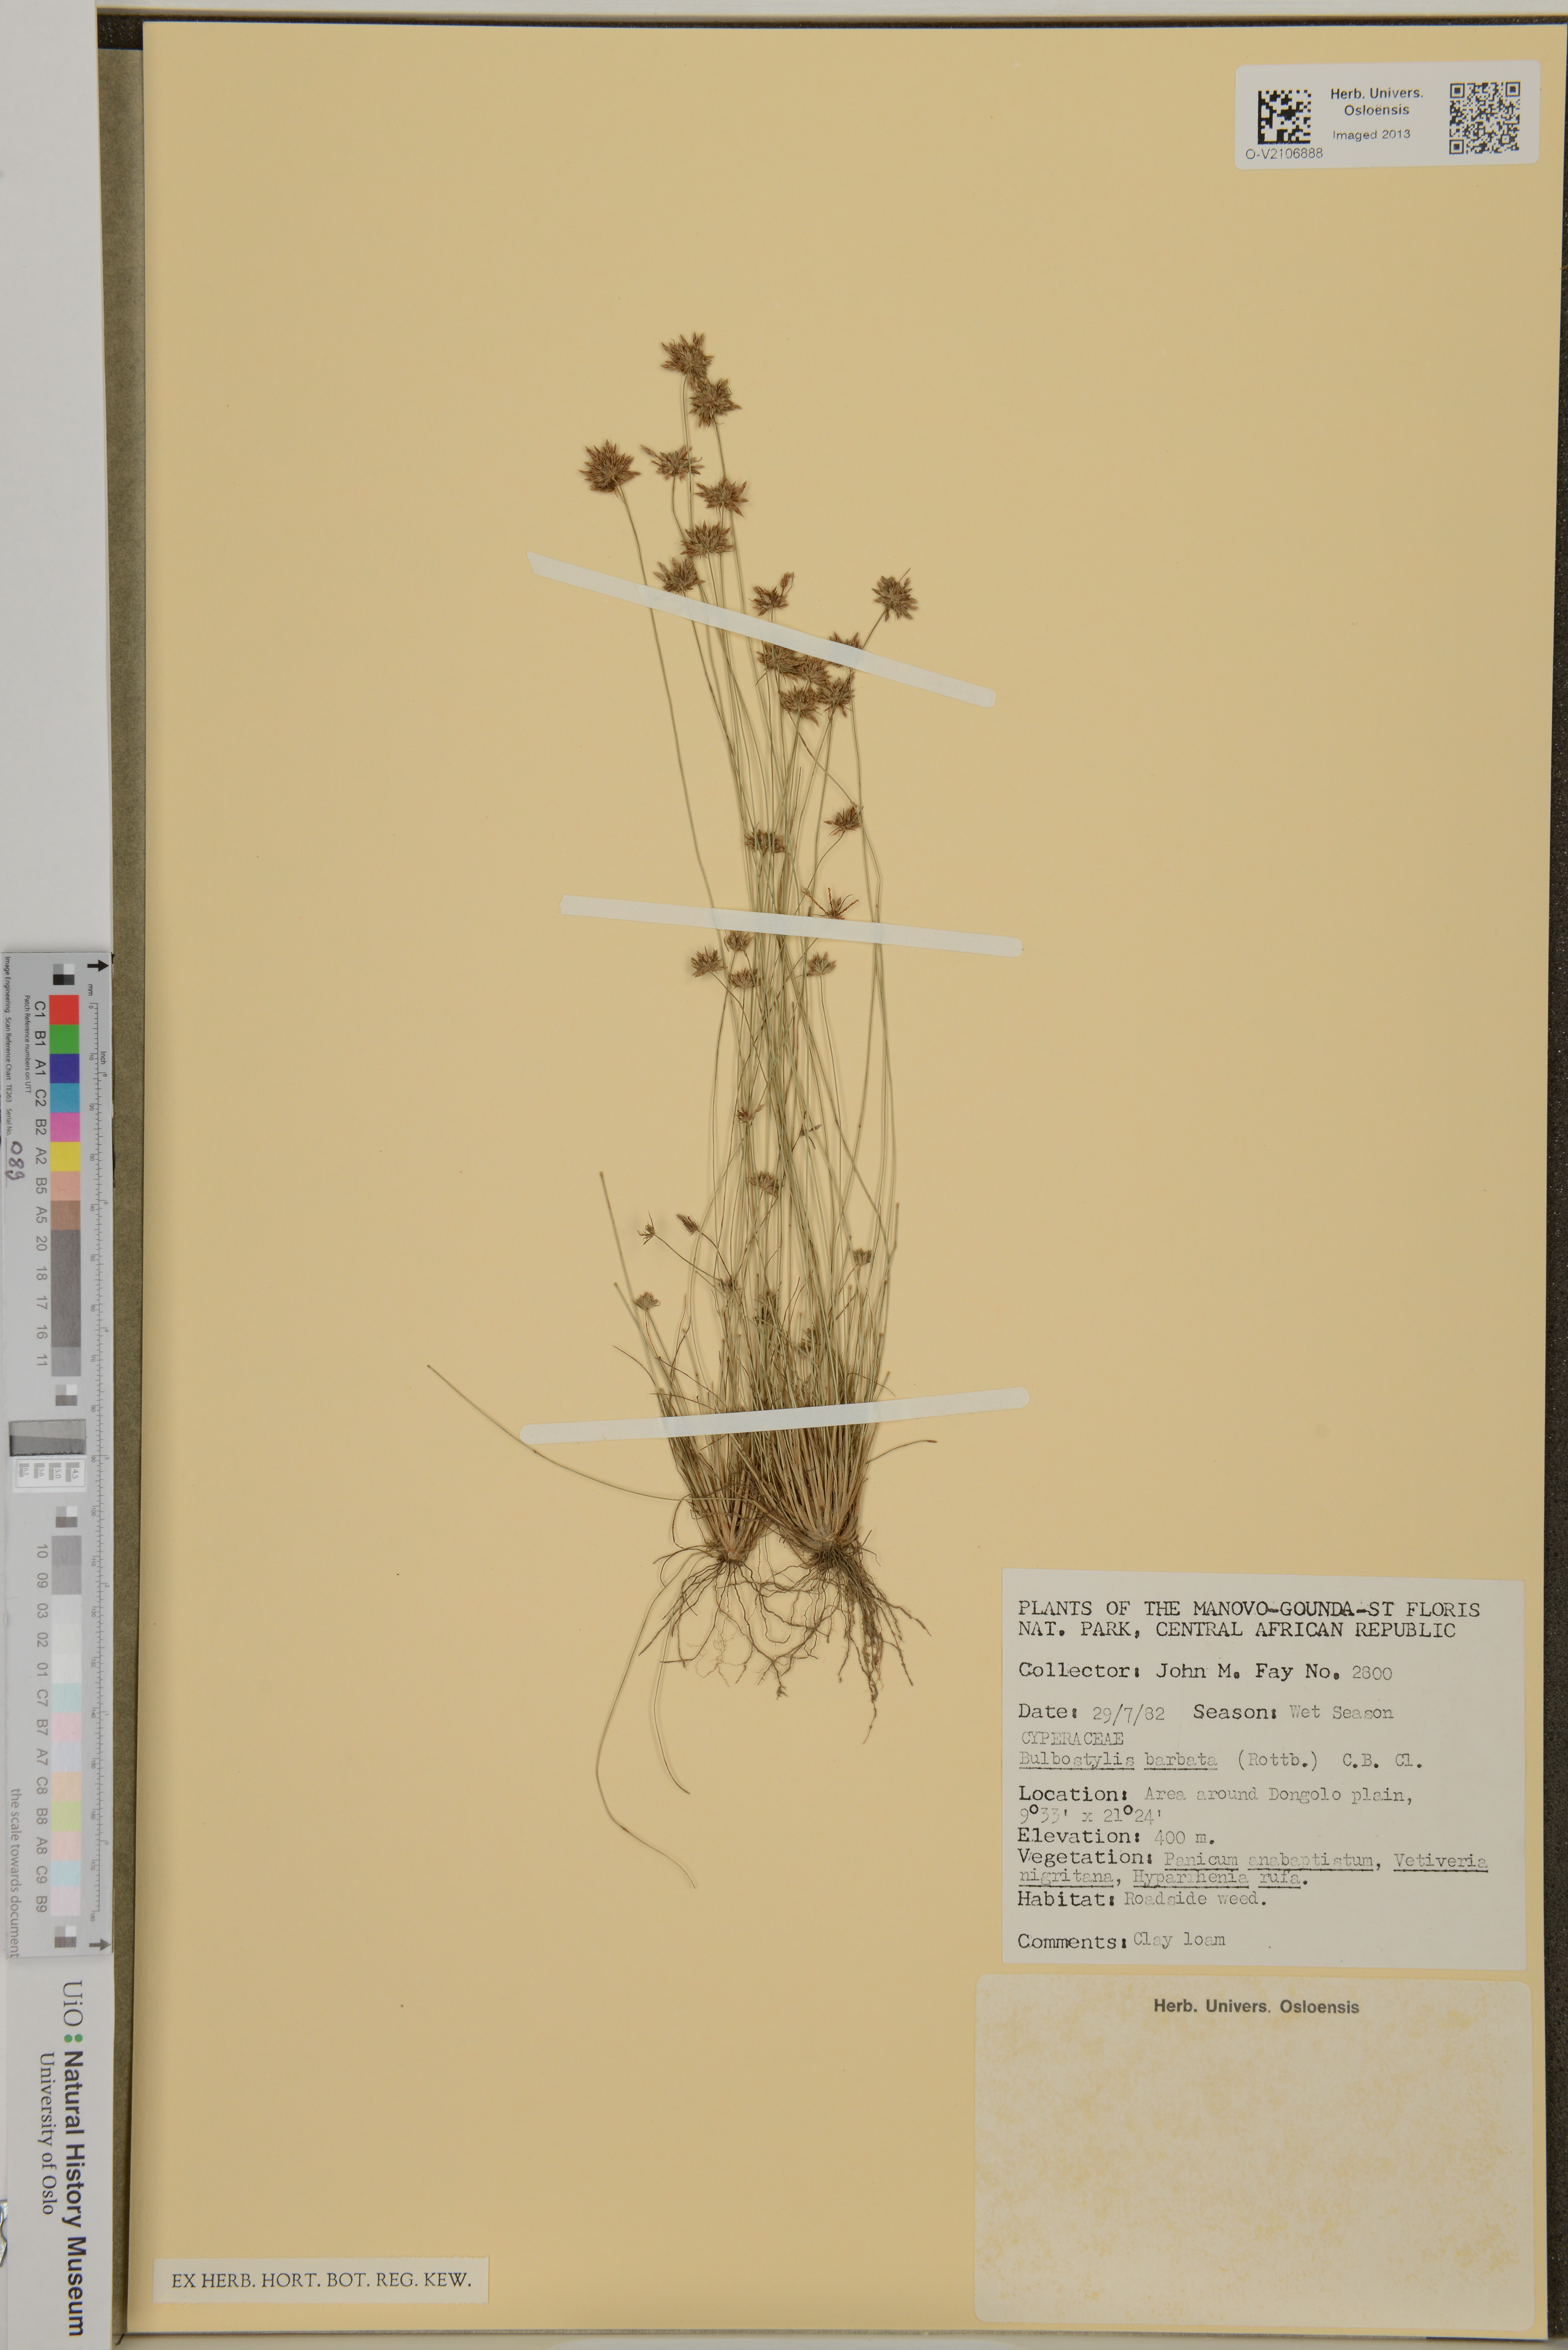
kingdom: Plantae
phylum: Tracheophyta
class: Liliopsida
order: Poales
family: Cyperaceae
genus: Bulbostylis
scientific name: Bulbostylis barbata
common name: Watergrass
